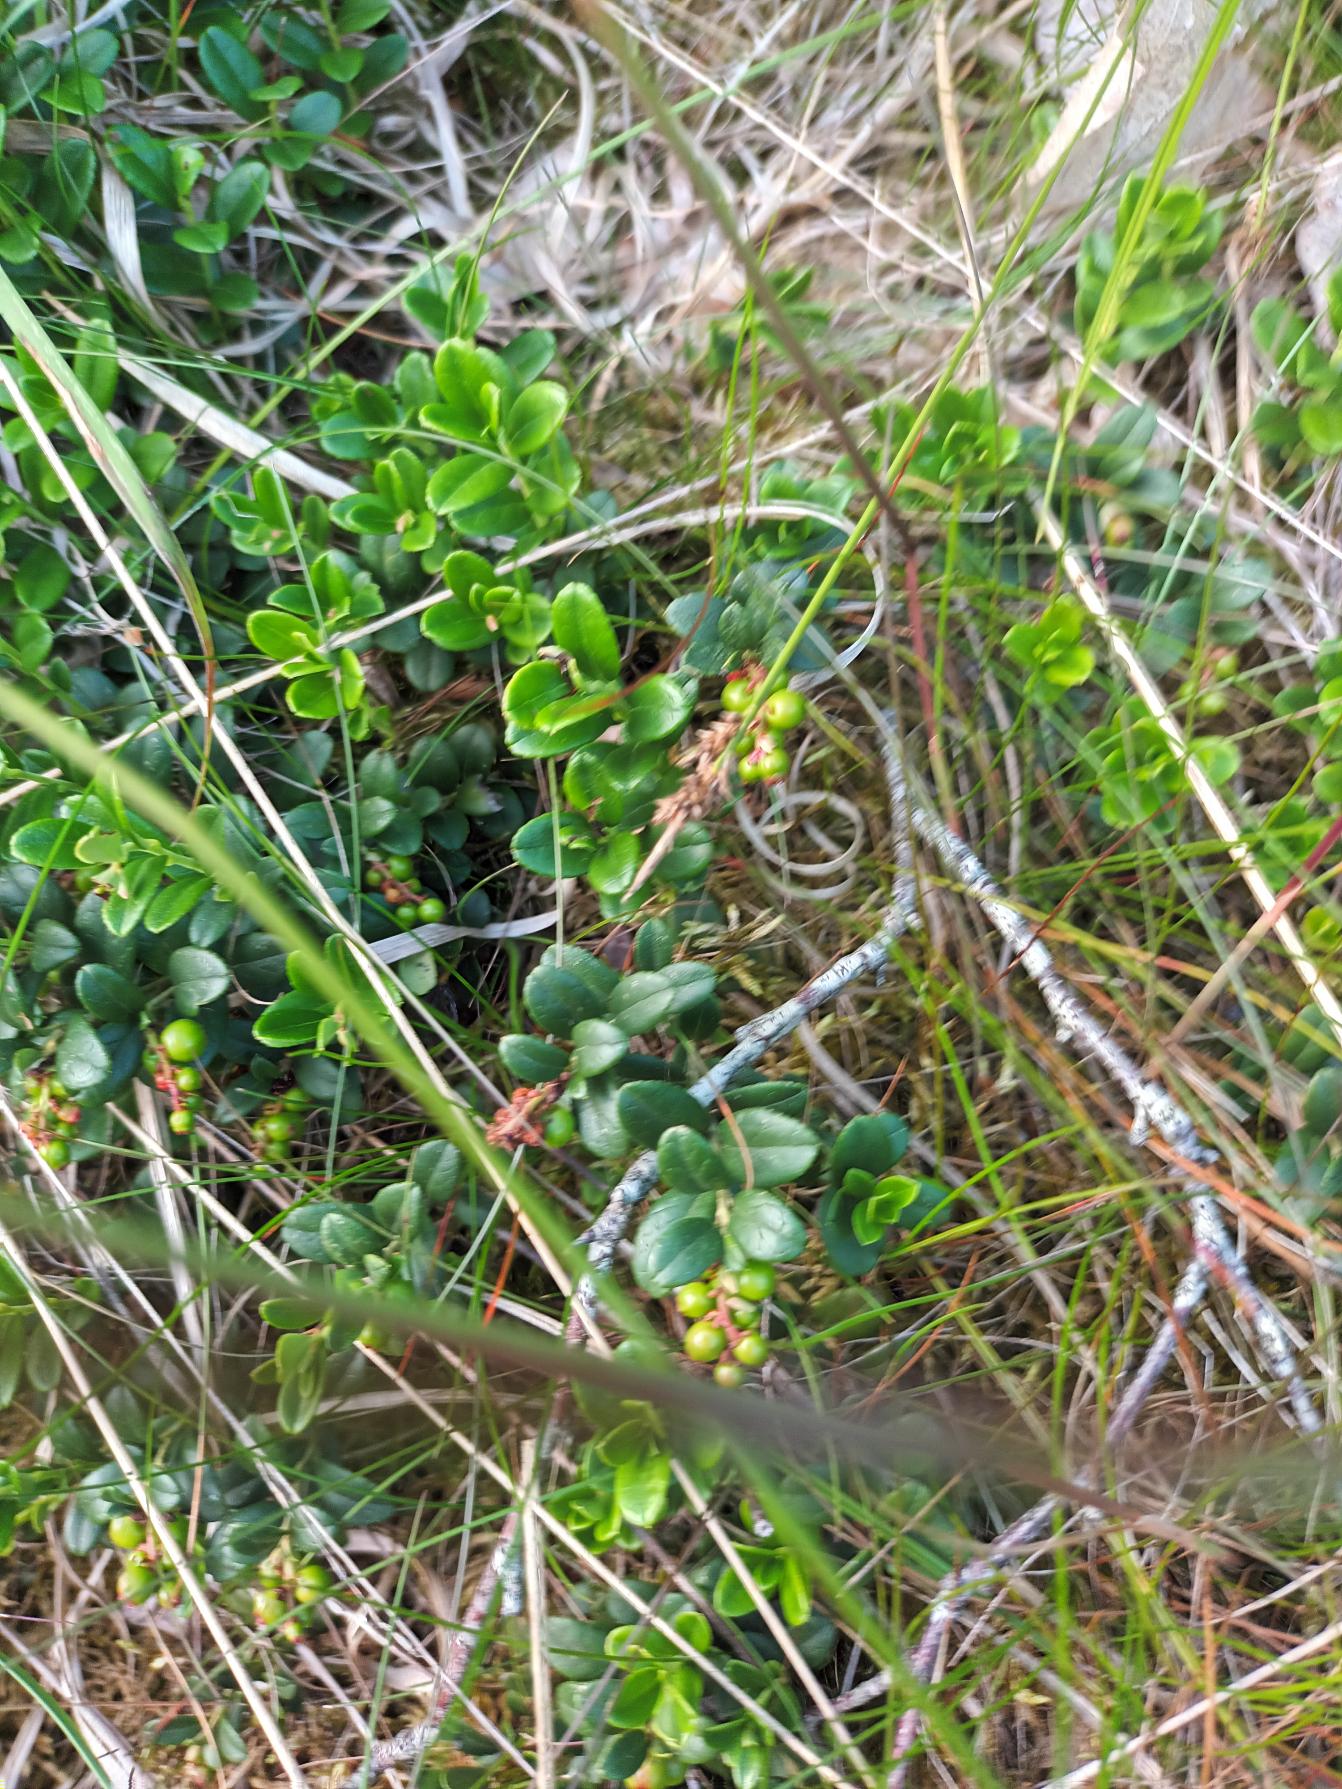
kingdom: Plantae
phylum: Tracheophyta
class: Magnoliopsida
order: Ericales
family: Ericaceae
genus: Vaccinium
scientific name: Vaccinium vitis-idaea
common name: Tyttebær
